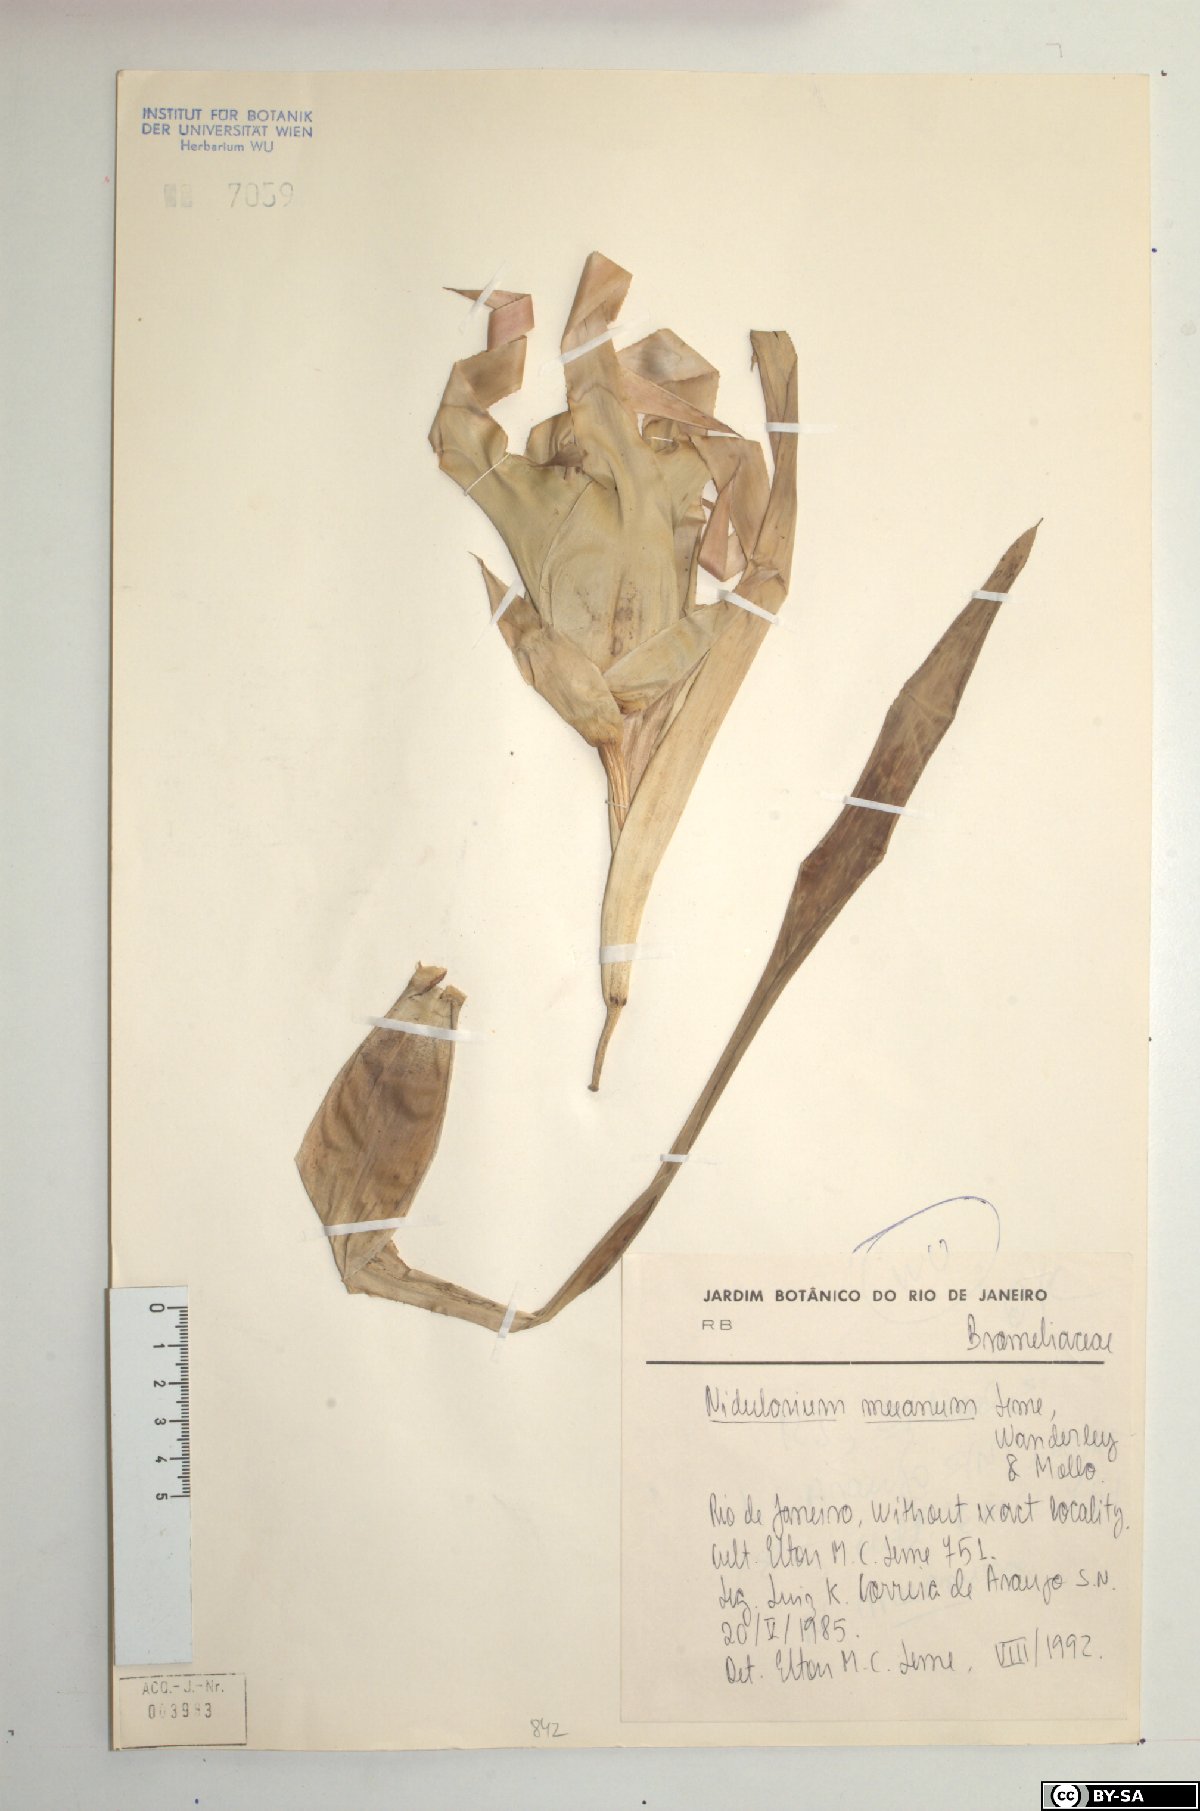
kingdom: Plantae
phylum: Tracheophyta
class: Liliopsida
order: Poales
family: Bromeliaceae
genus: Nidularium
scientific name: Nidularium procerum
